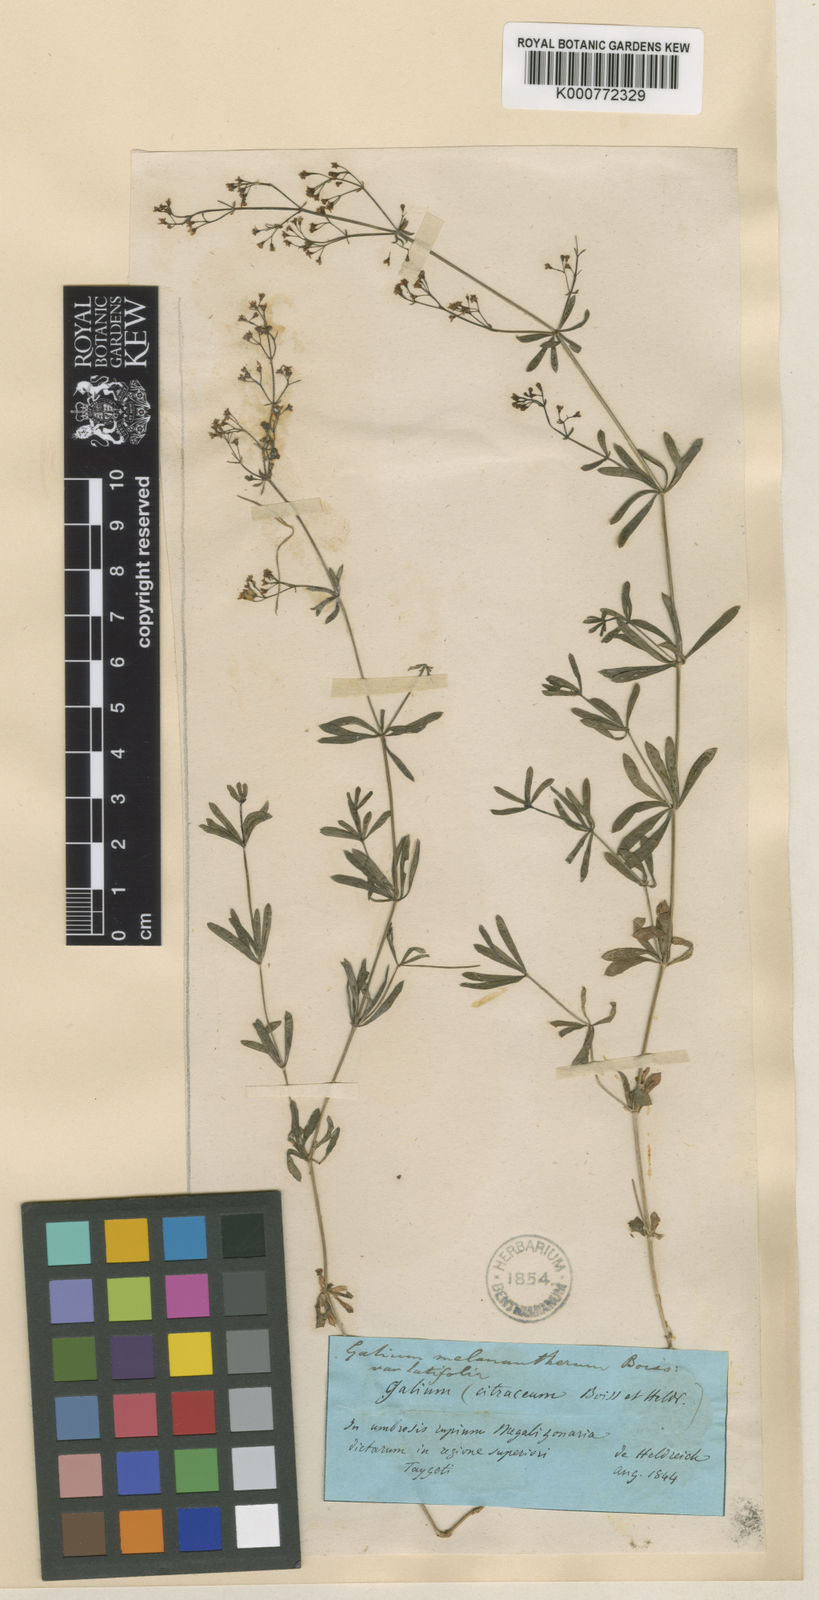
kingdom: Plantae
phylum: Tracheophyta
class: Magnoliopsida
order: Gentianales
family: Rubiaceae
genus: Galium
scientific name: Galium melanantherum
